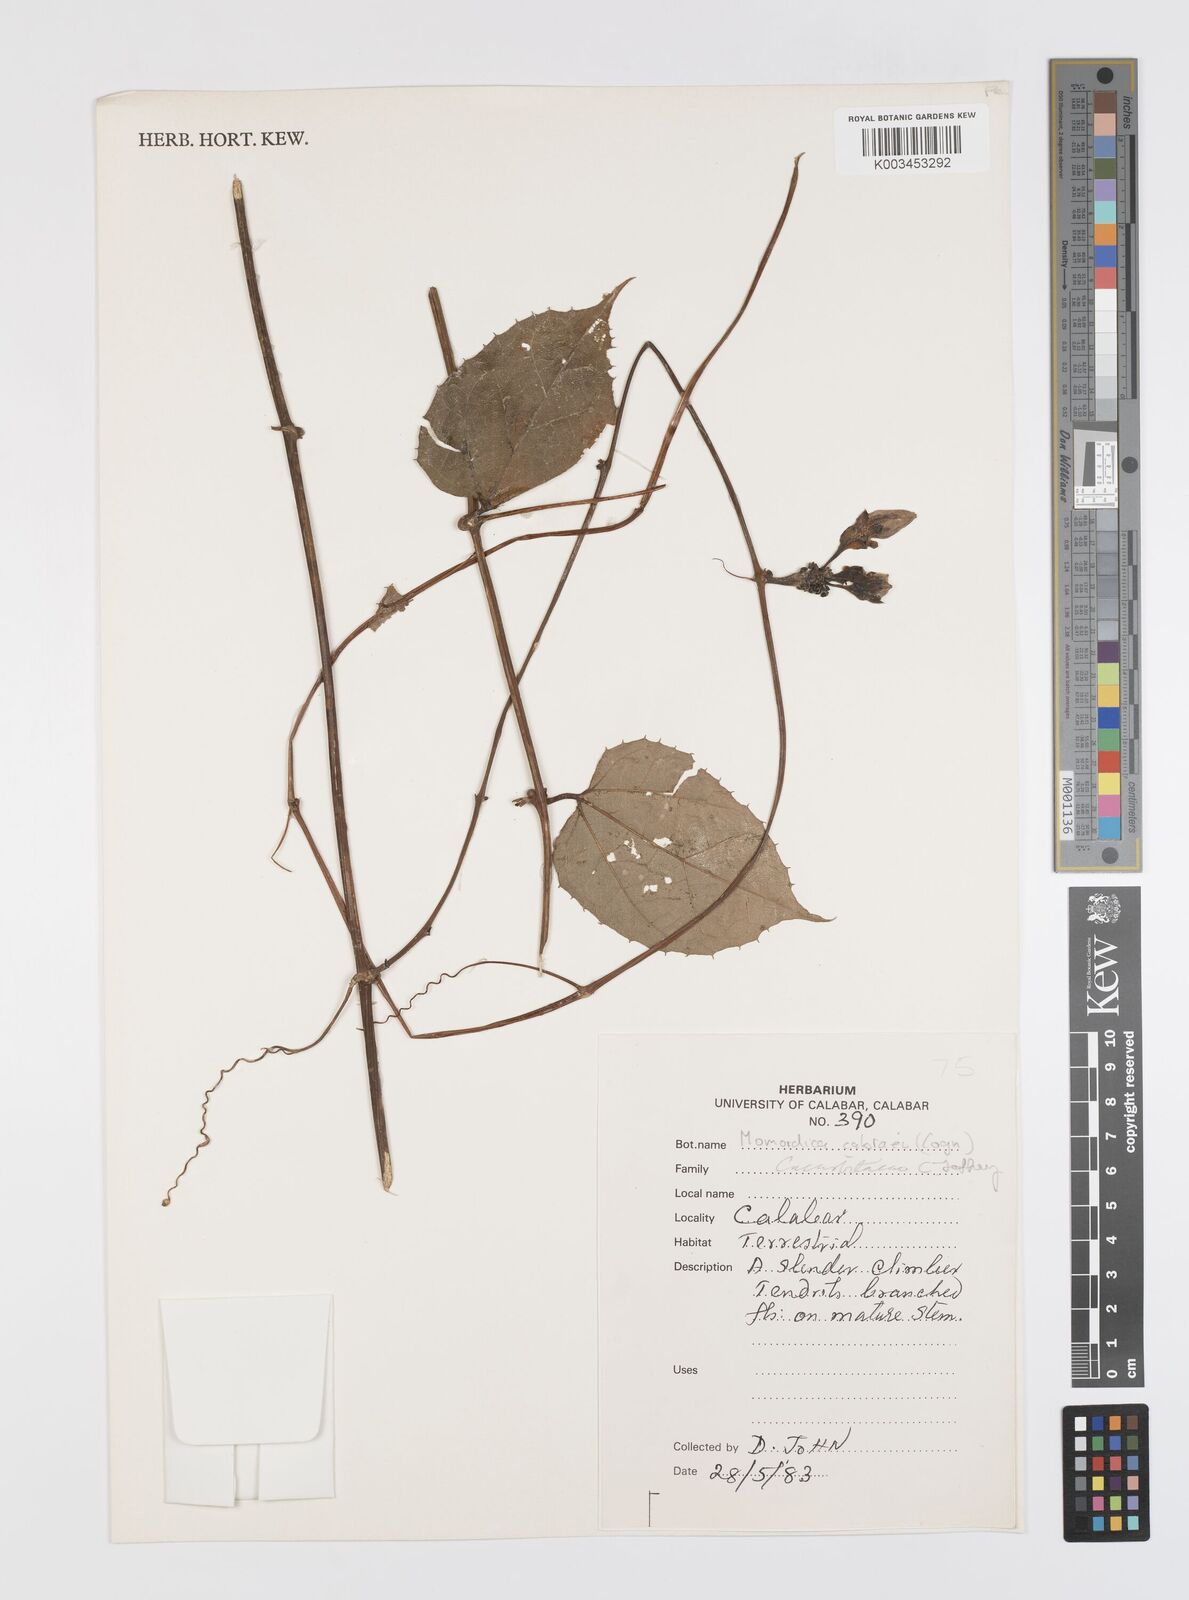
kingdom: Plantae
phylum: Tracheophyta
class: Magnoliopsida
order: Cucurbitales
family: Cucurbitaceae
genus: Momordica
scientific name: Momordica cabrae
